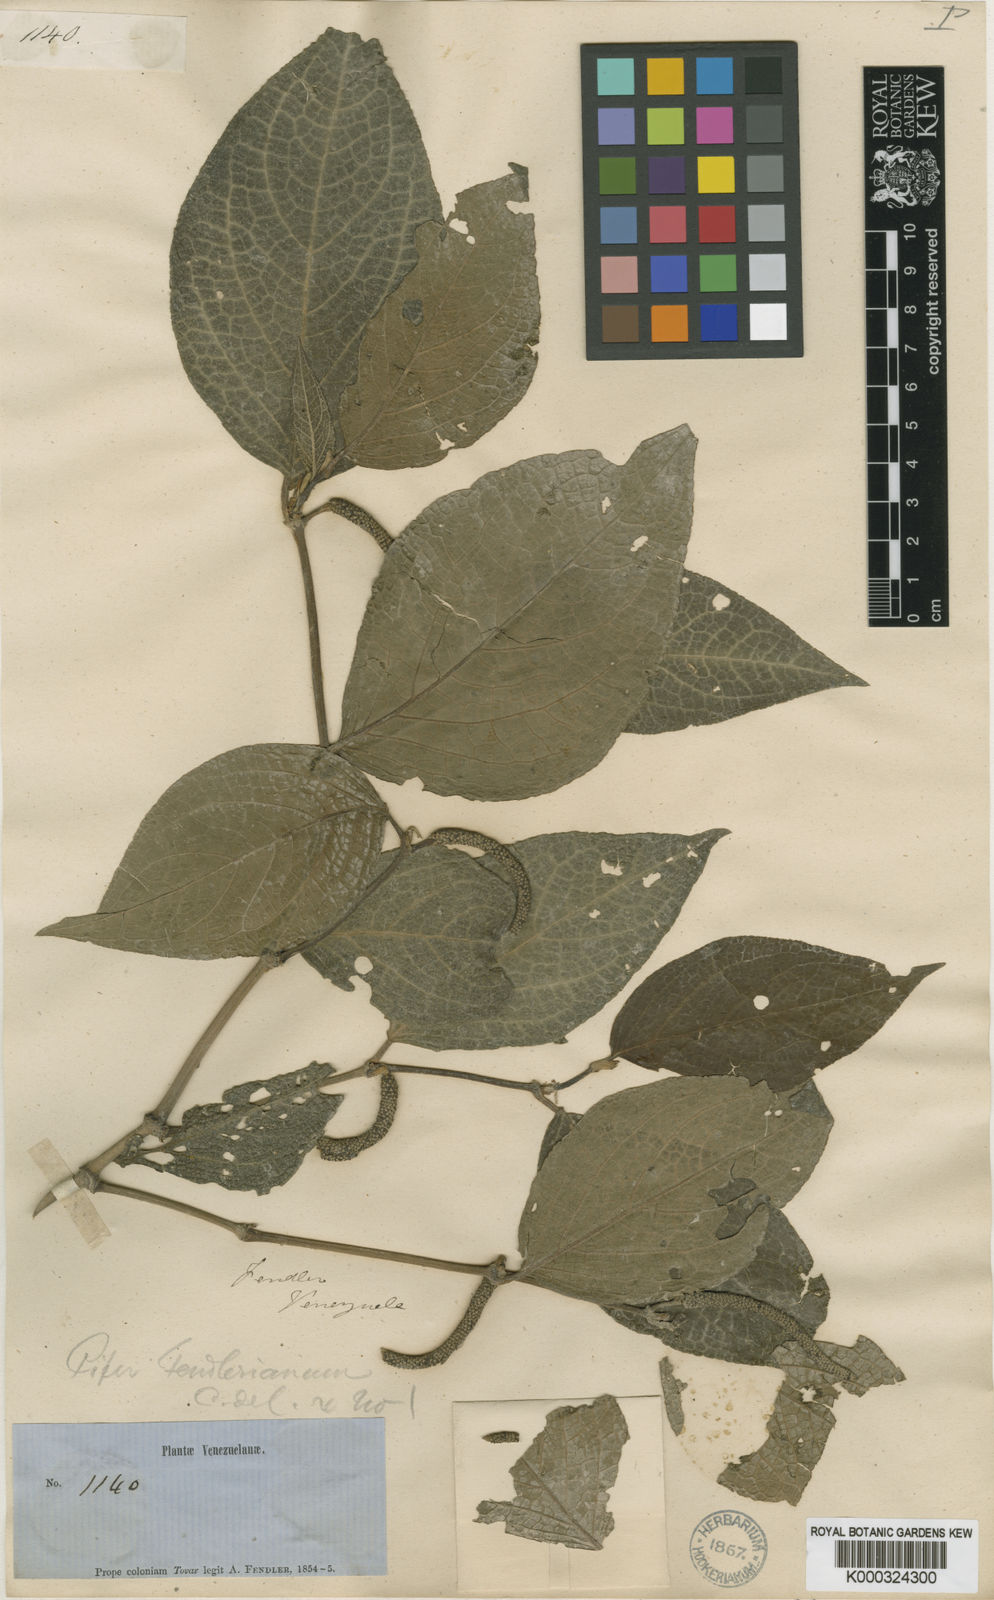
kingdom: Plantae
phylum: Tracheophyta
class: Magnoliopsida
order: Piperales
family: Piperaceae
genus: Piper
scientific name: Piper prunifolium
